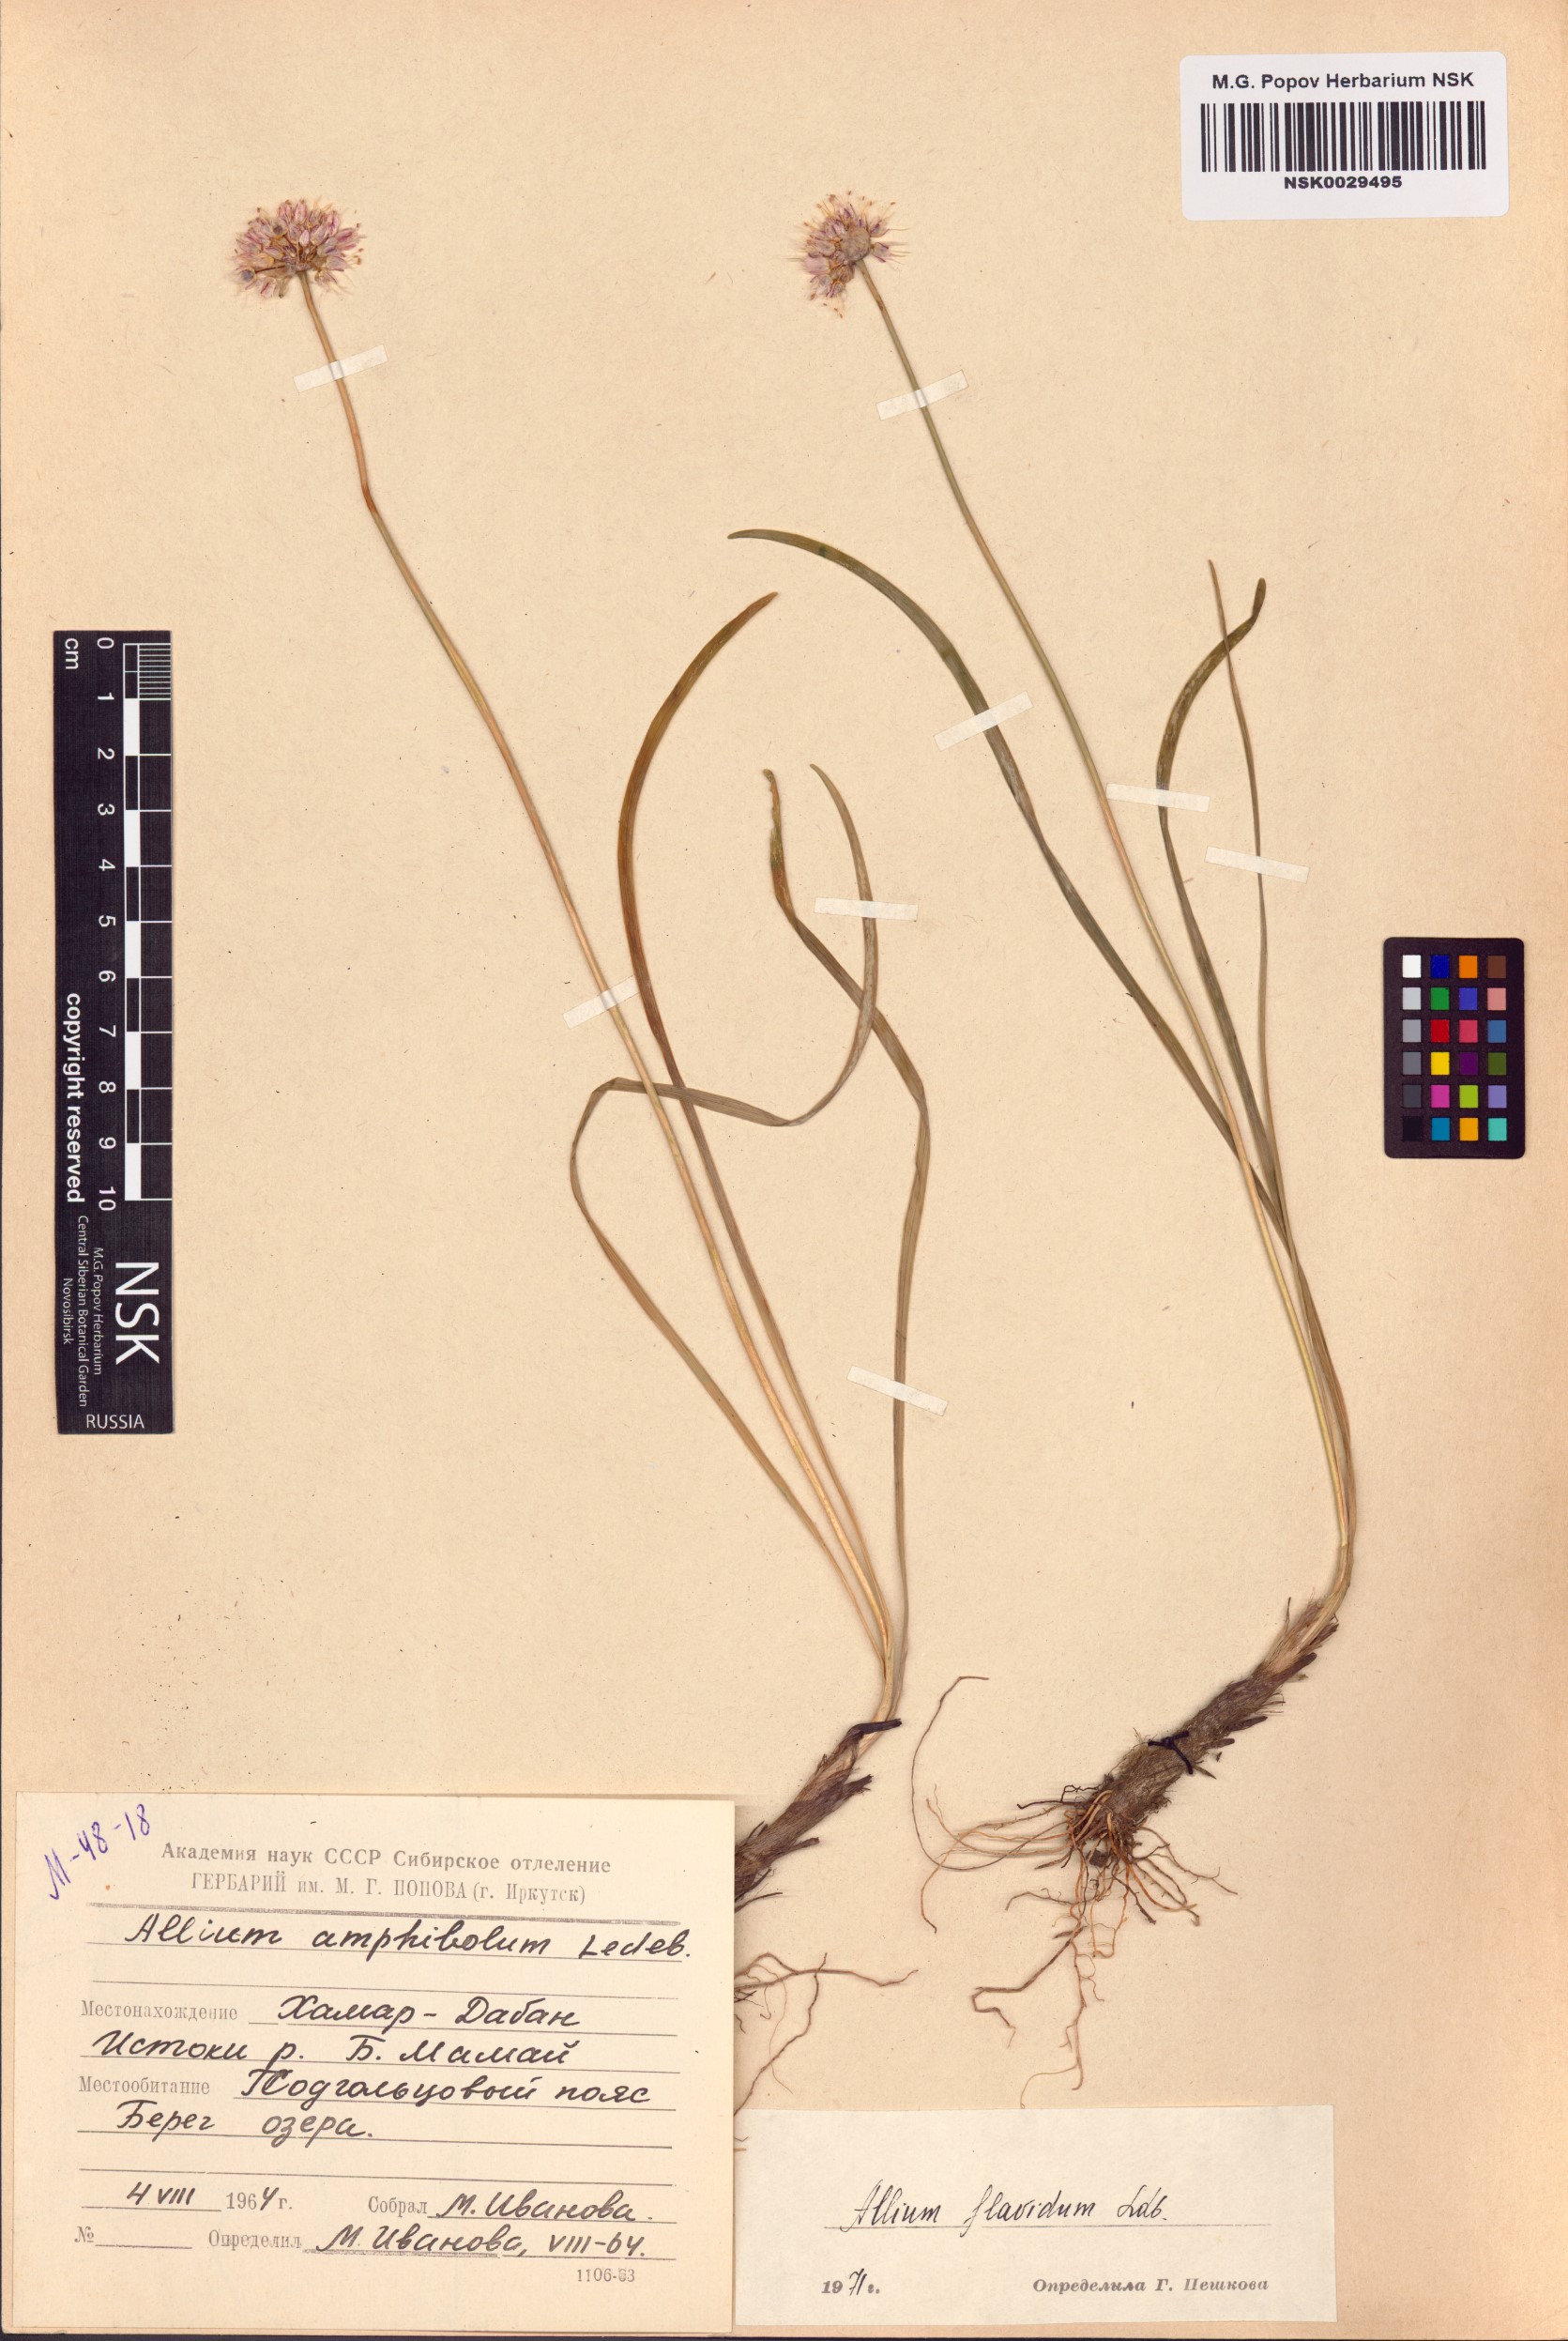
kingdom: Plantae
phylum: Tracheophyta
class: Liliopsida
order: Asparagales
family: Amaryllidaceae
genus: Allium
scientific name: Allium flavidum
